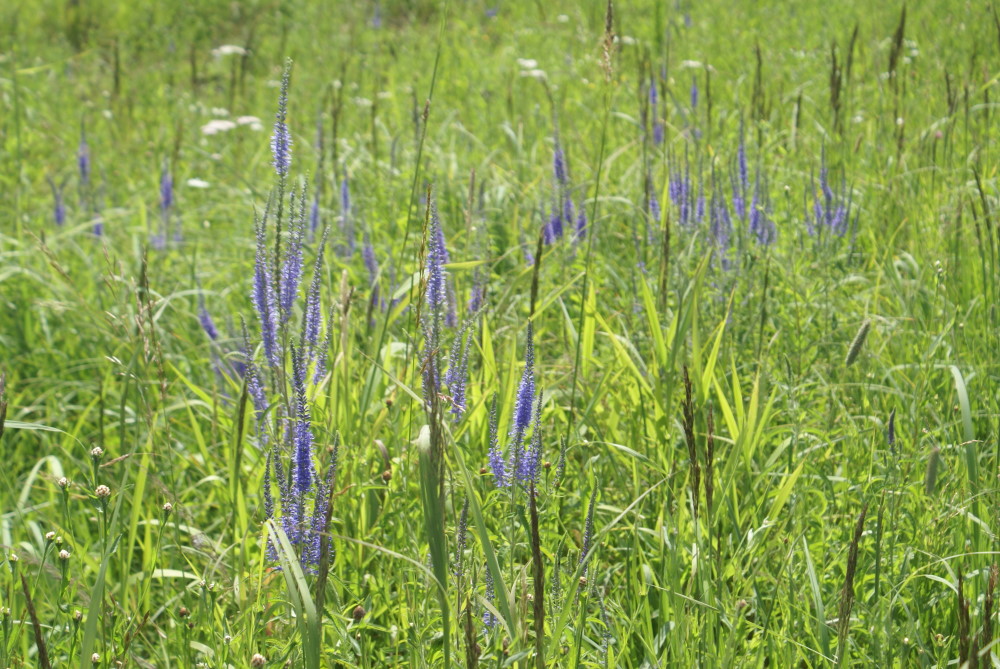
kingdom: Plantae
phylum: Tracheophyta
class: Magnoliopsida
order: Lamiales
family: Plantaginaceae
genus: Veronica
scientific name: Veronica longifolia
